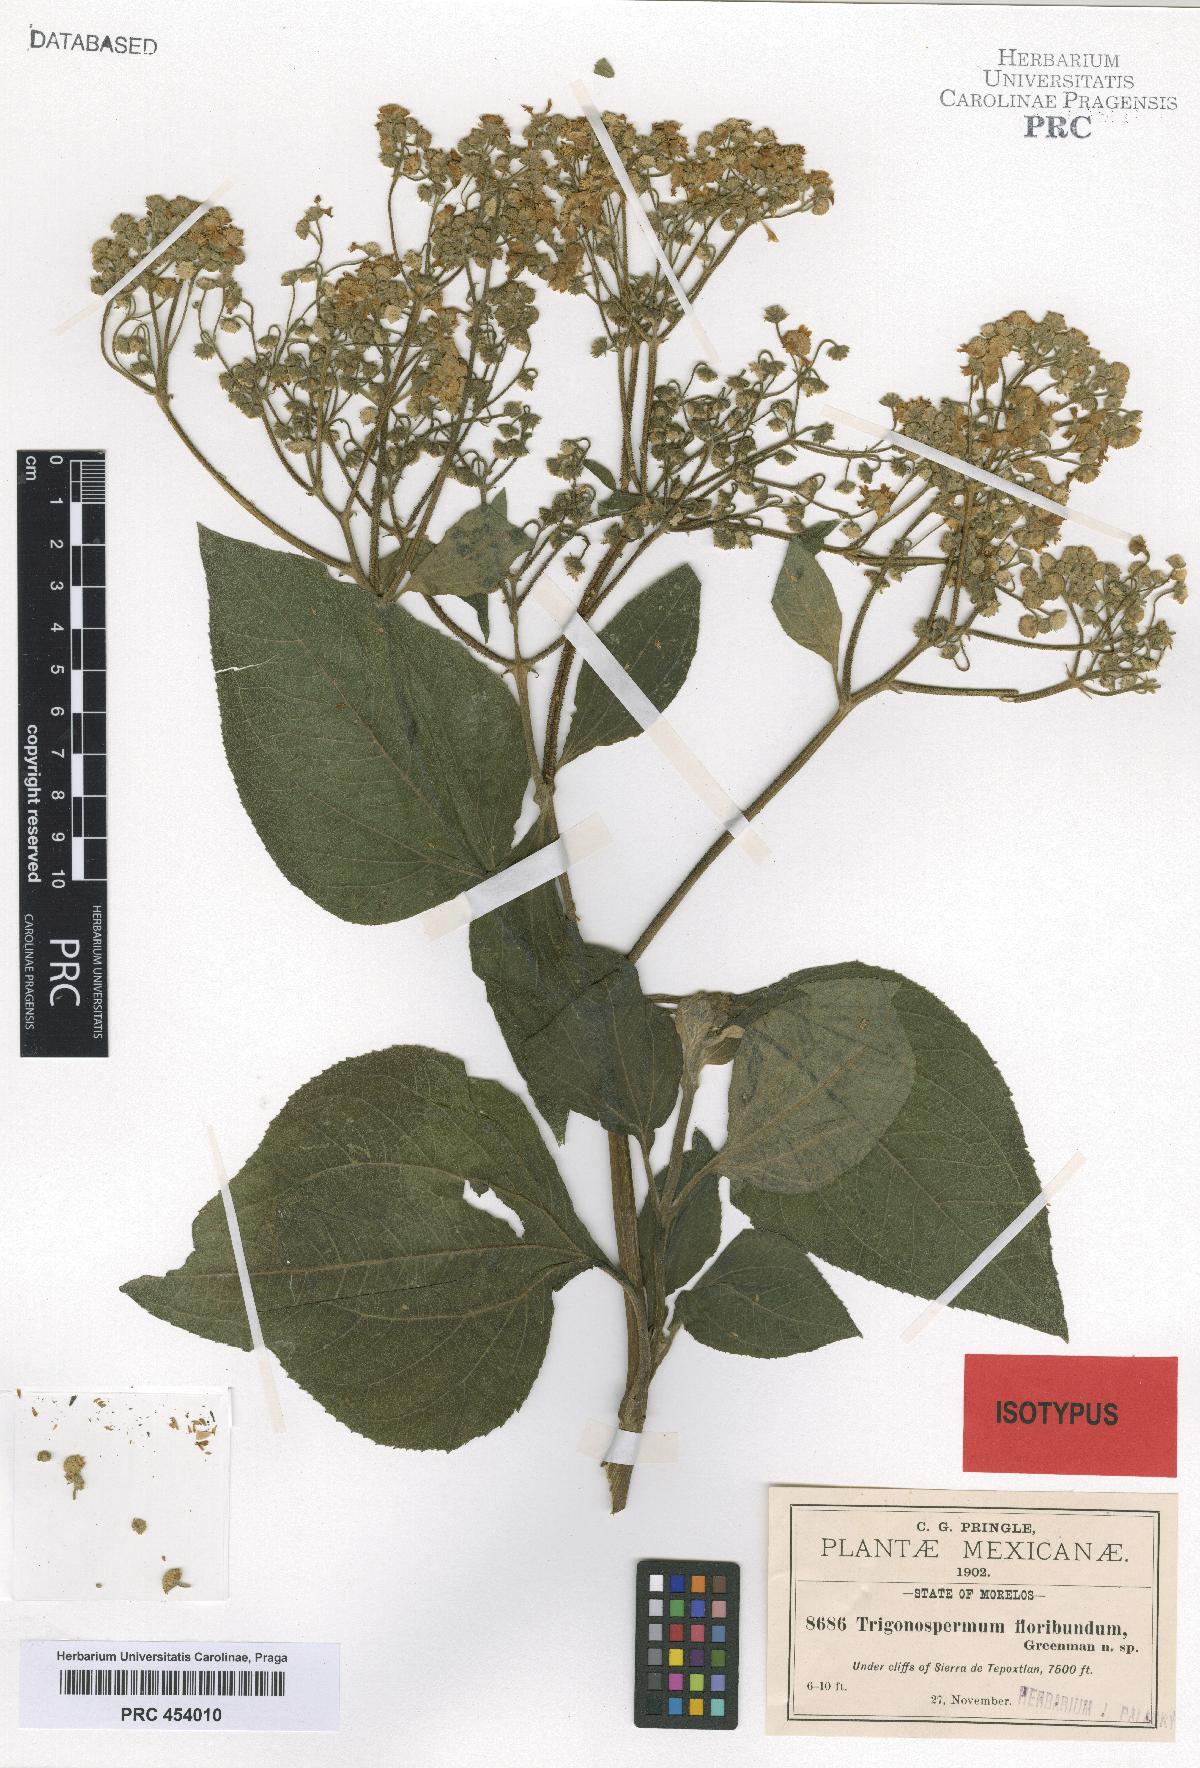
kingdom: Plantae
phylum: Tracheophyta
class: Magnoliopsida
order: Asterales
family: Asteraceae
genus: Trigonospermum
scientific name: Trigonospermum melampodioides
